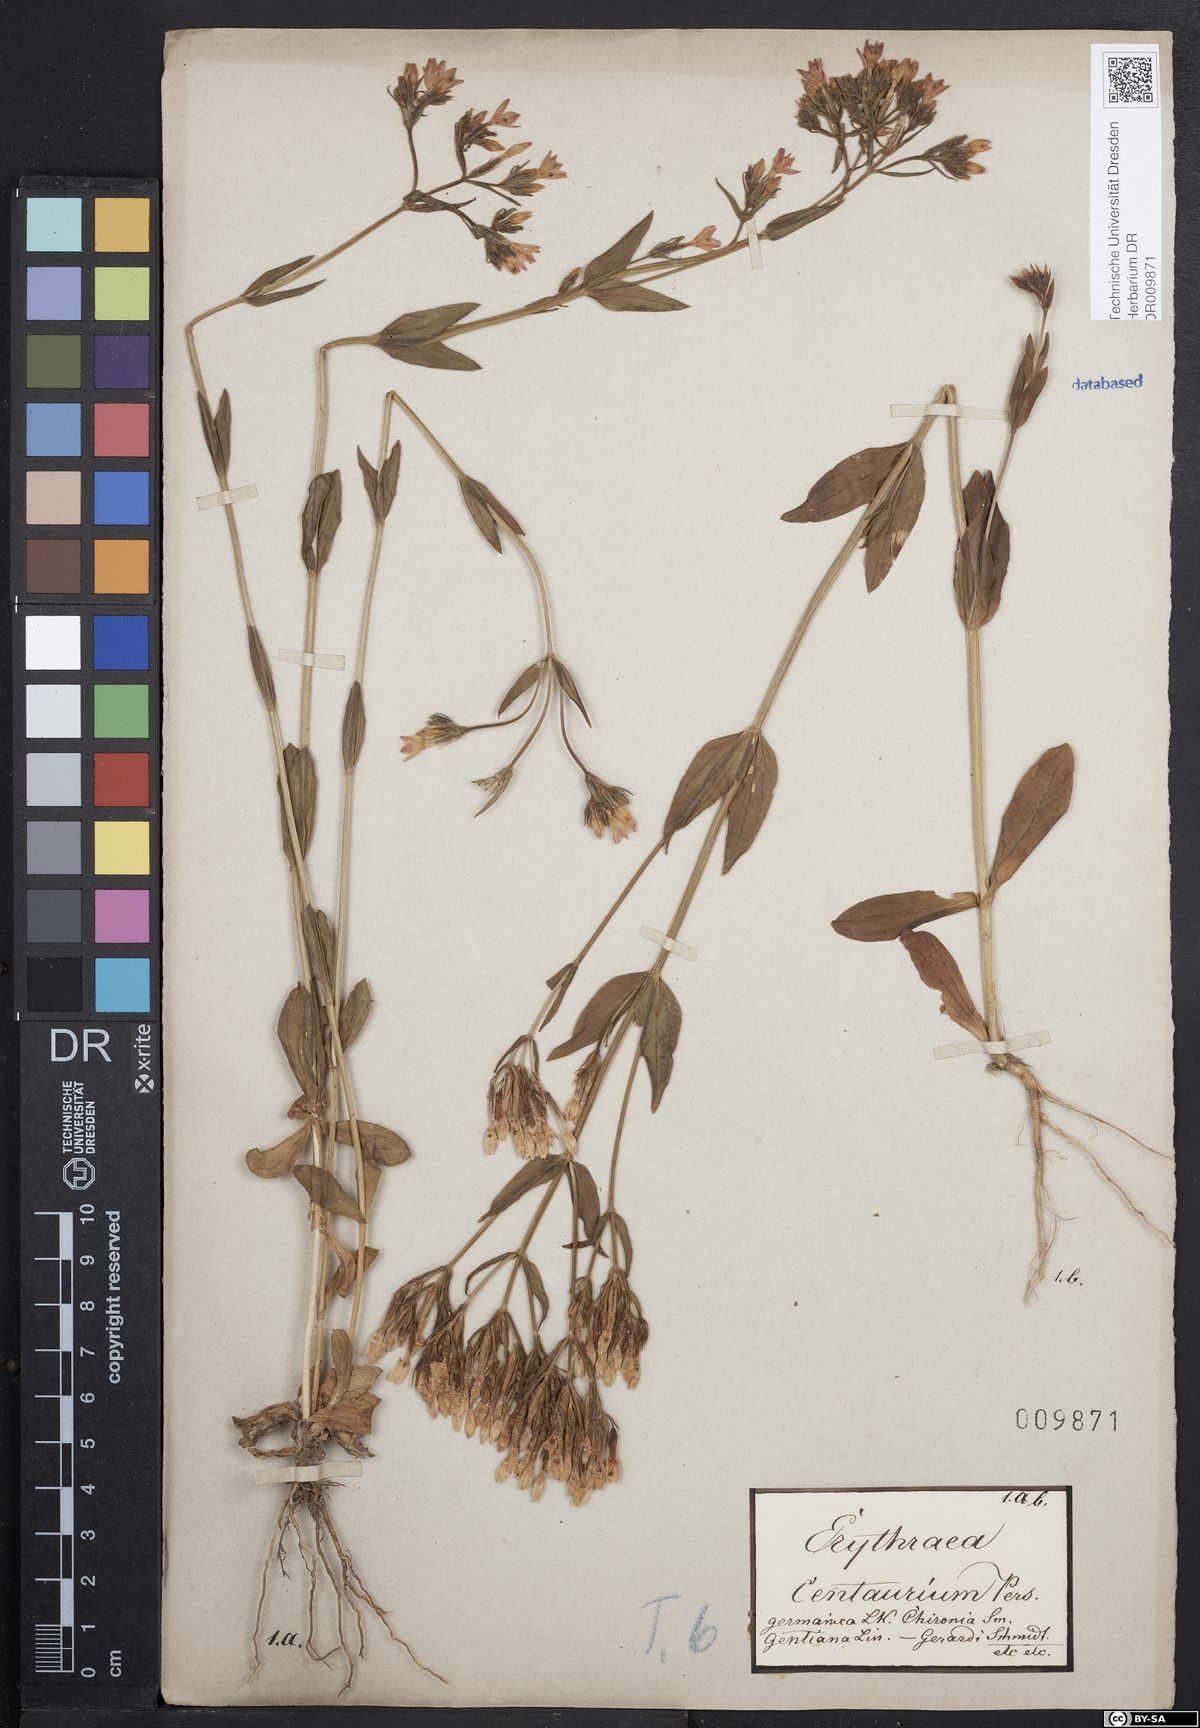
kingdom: Plantae
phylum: Tracheophyta
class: Magnoliopsida
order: Gentianales
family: Gentianaceae
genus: Centaurium
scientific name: Centaurium erythraea
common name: Common centaury
